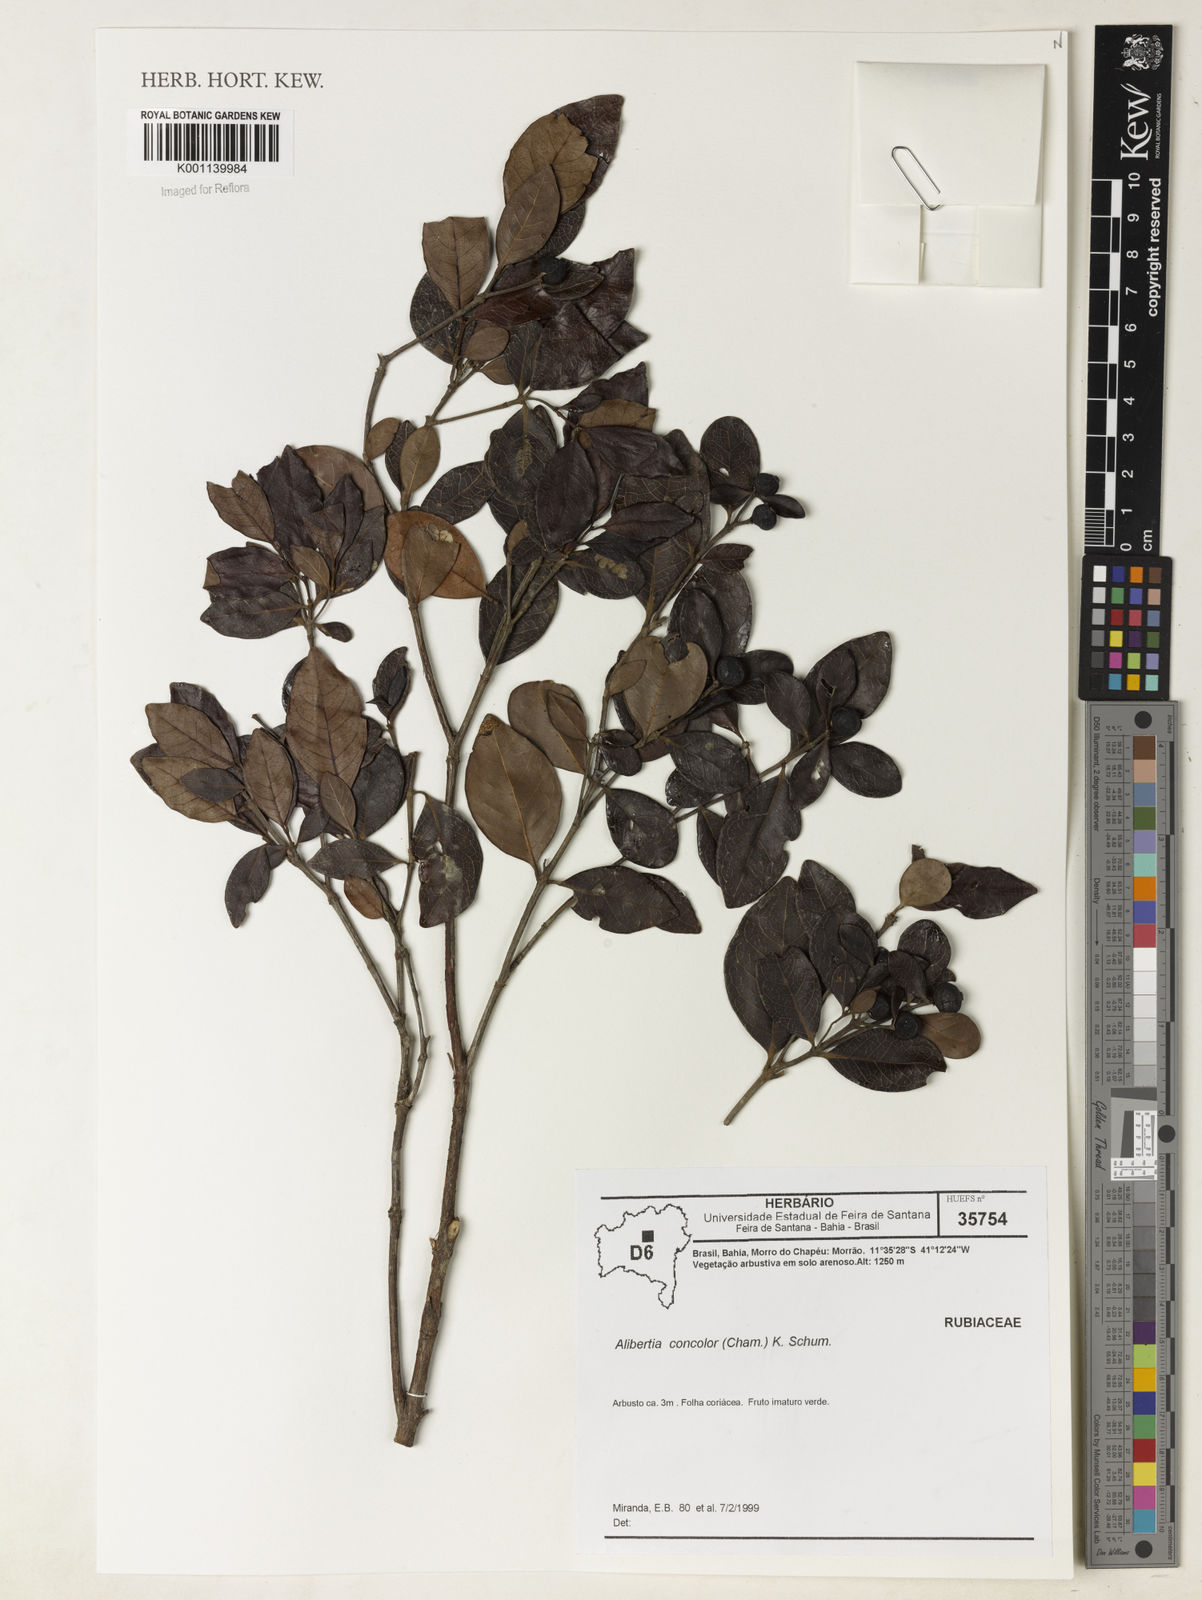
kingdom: Plantae
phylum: Tracheophyta
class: Magnoliopsida
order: Gentianales
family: Rubiaceae
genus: Cordiera
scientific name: Cordiera concolor
